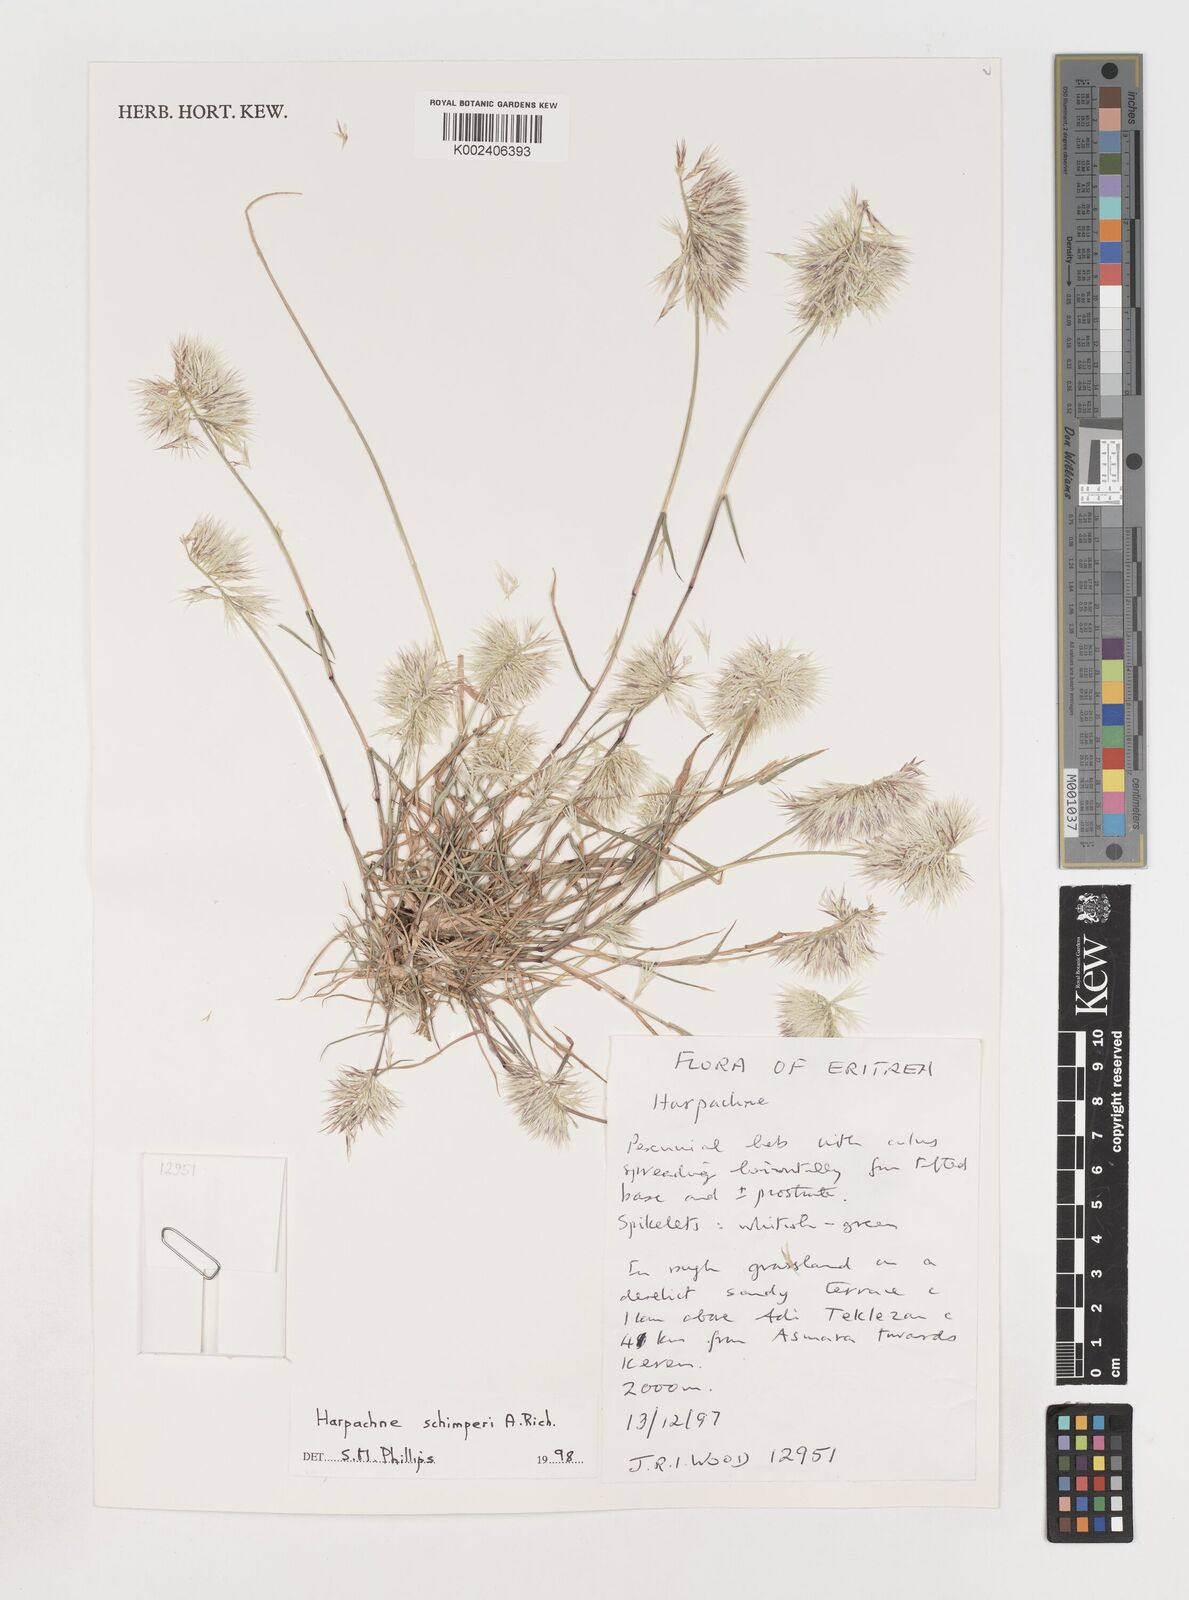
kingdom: Plantae
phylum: Tracheophyta
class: Liliopsida
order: Poales
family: Poaceae
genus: Harpachne
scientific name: Harpachne schimperi
